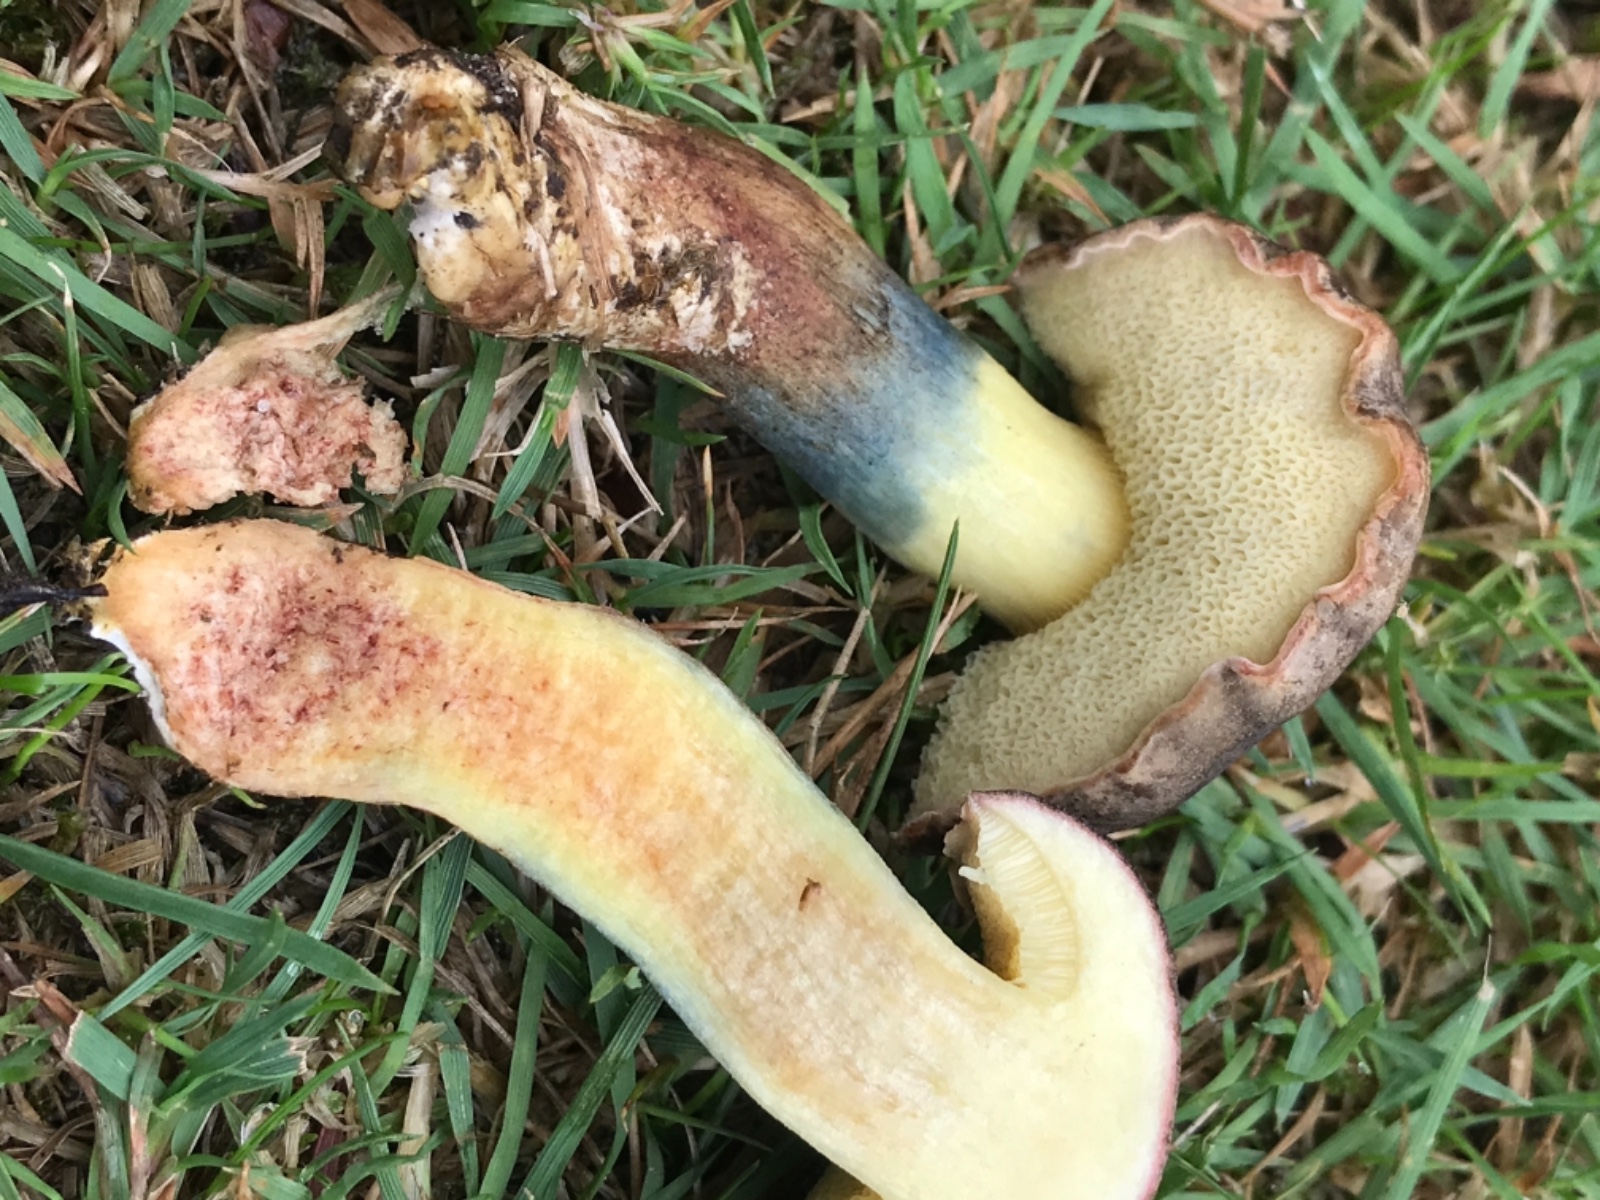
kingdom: Fungi
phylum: Basidiomycota
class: Agaricomycetes
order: Boletales
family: Boletaceae
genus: Hortiboletus
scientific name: Hortiboletus bubalinus
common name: aurora-rørhat
